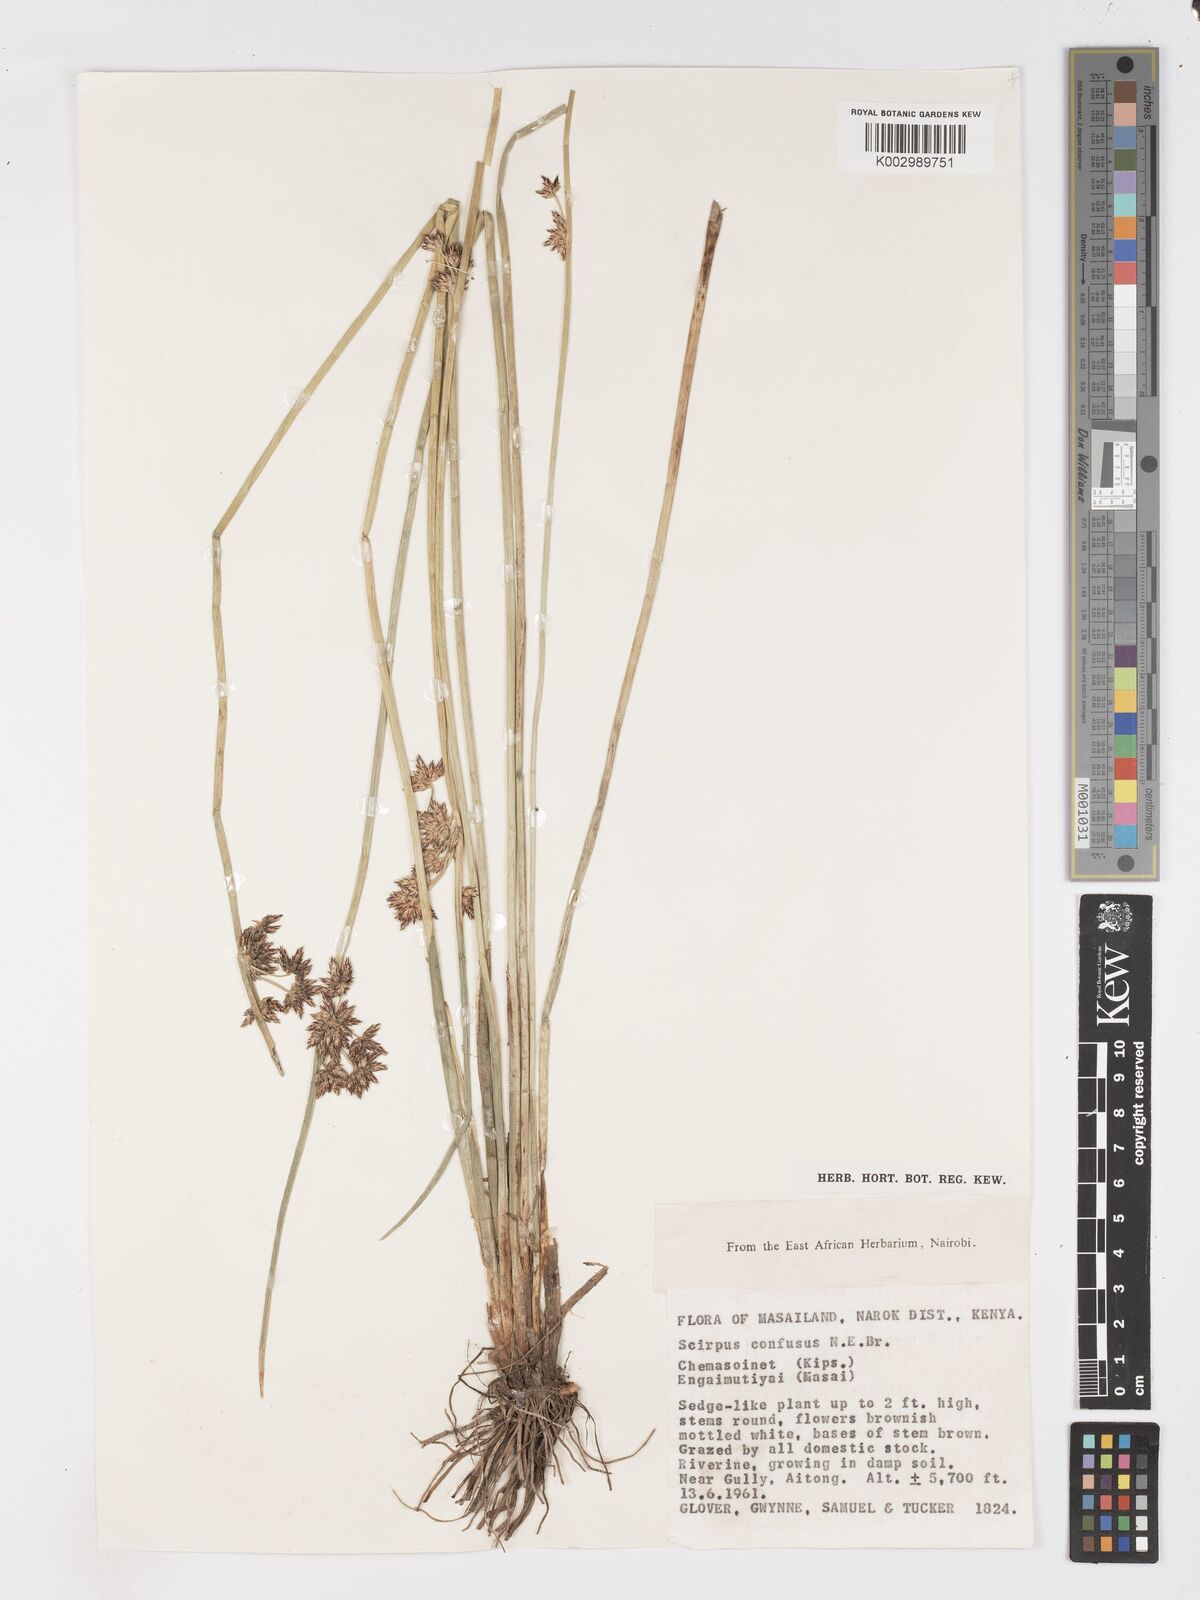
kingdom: Plantae
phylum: Tracheophyta
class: Liliopsida
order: Poales
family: Cyperaceae
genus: Schoenoplectiella
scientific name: Schoenoplectiella confusa
